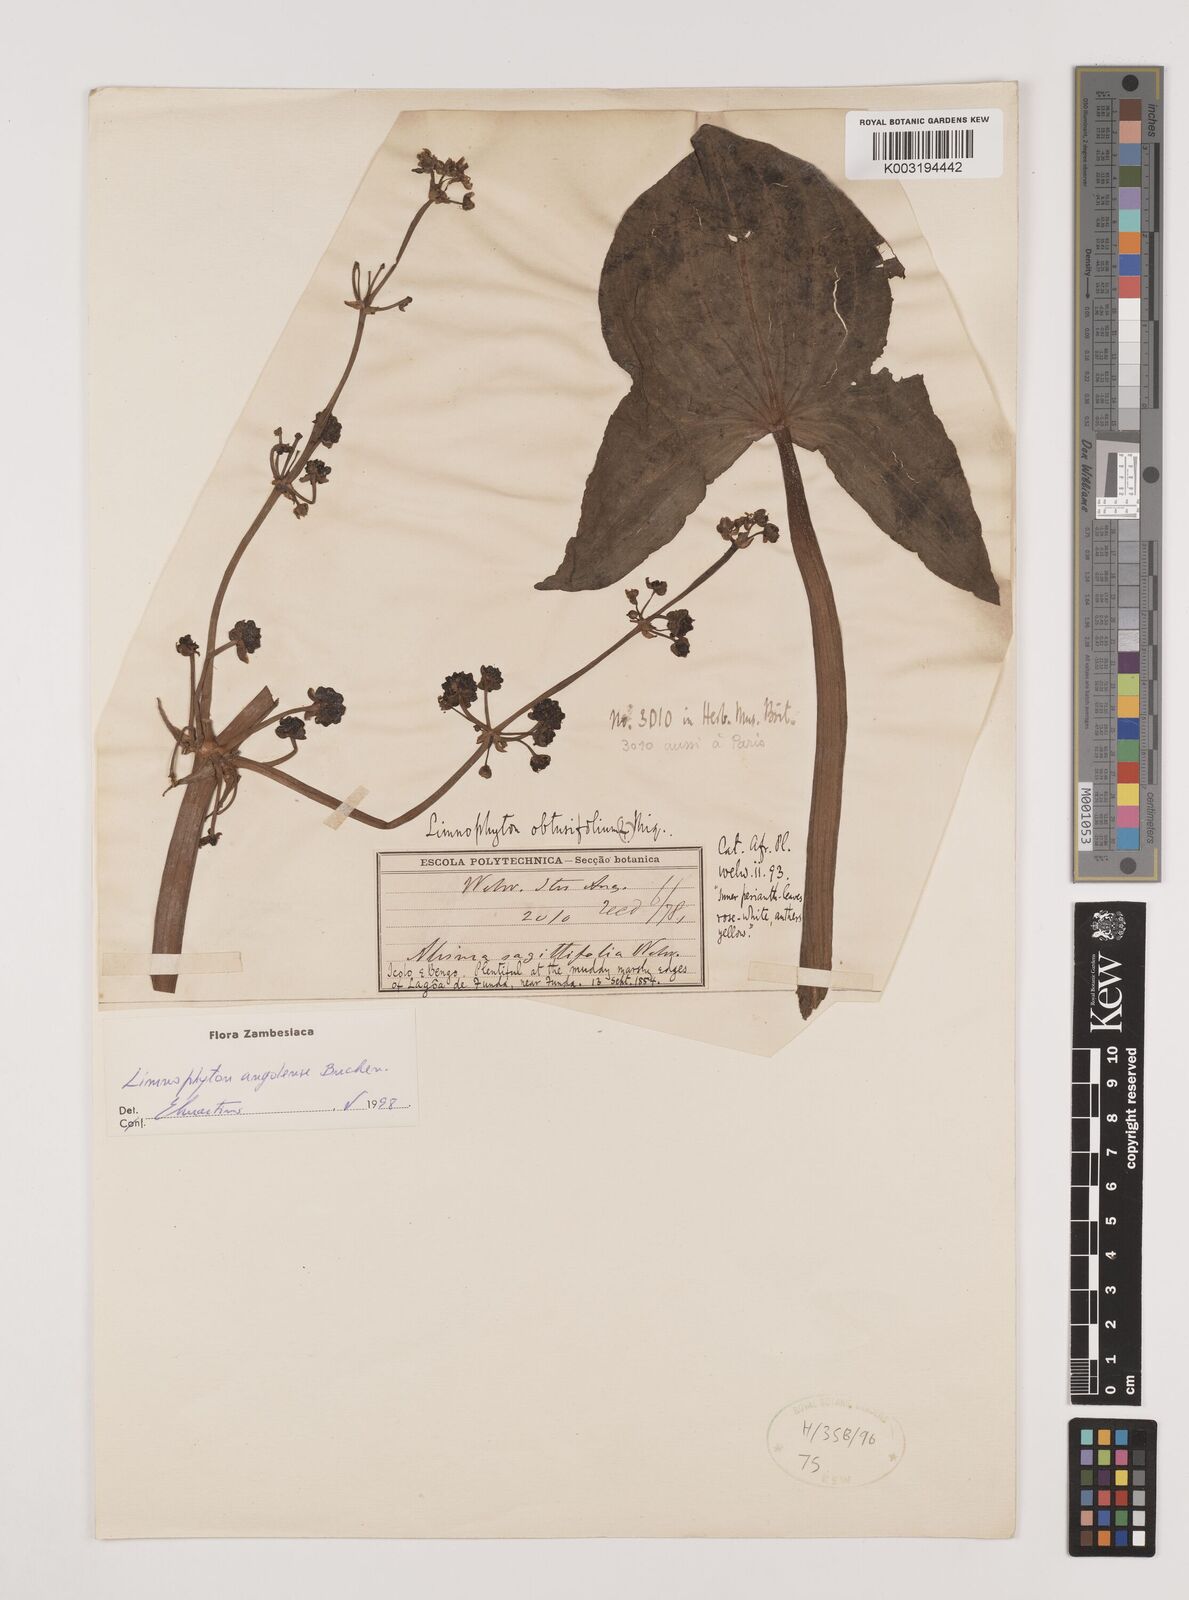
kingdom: Plantae
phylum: Tracheophyta
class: Liliopsida
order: Alismatales
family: Alismataceae
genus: Limnophyton
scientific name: Limnophyton angolense
